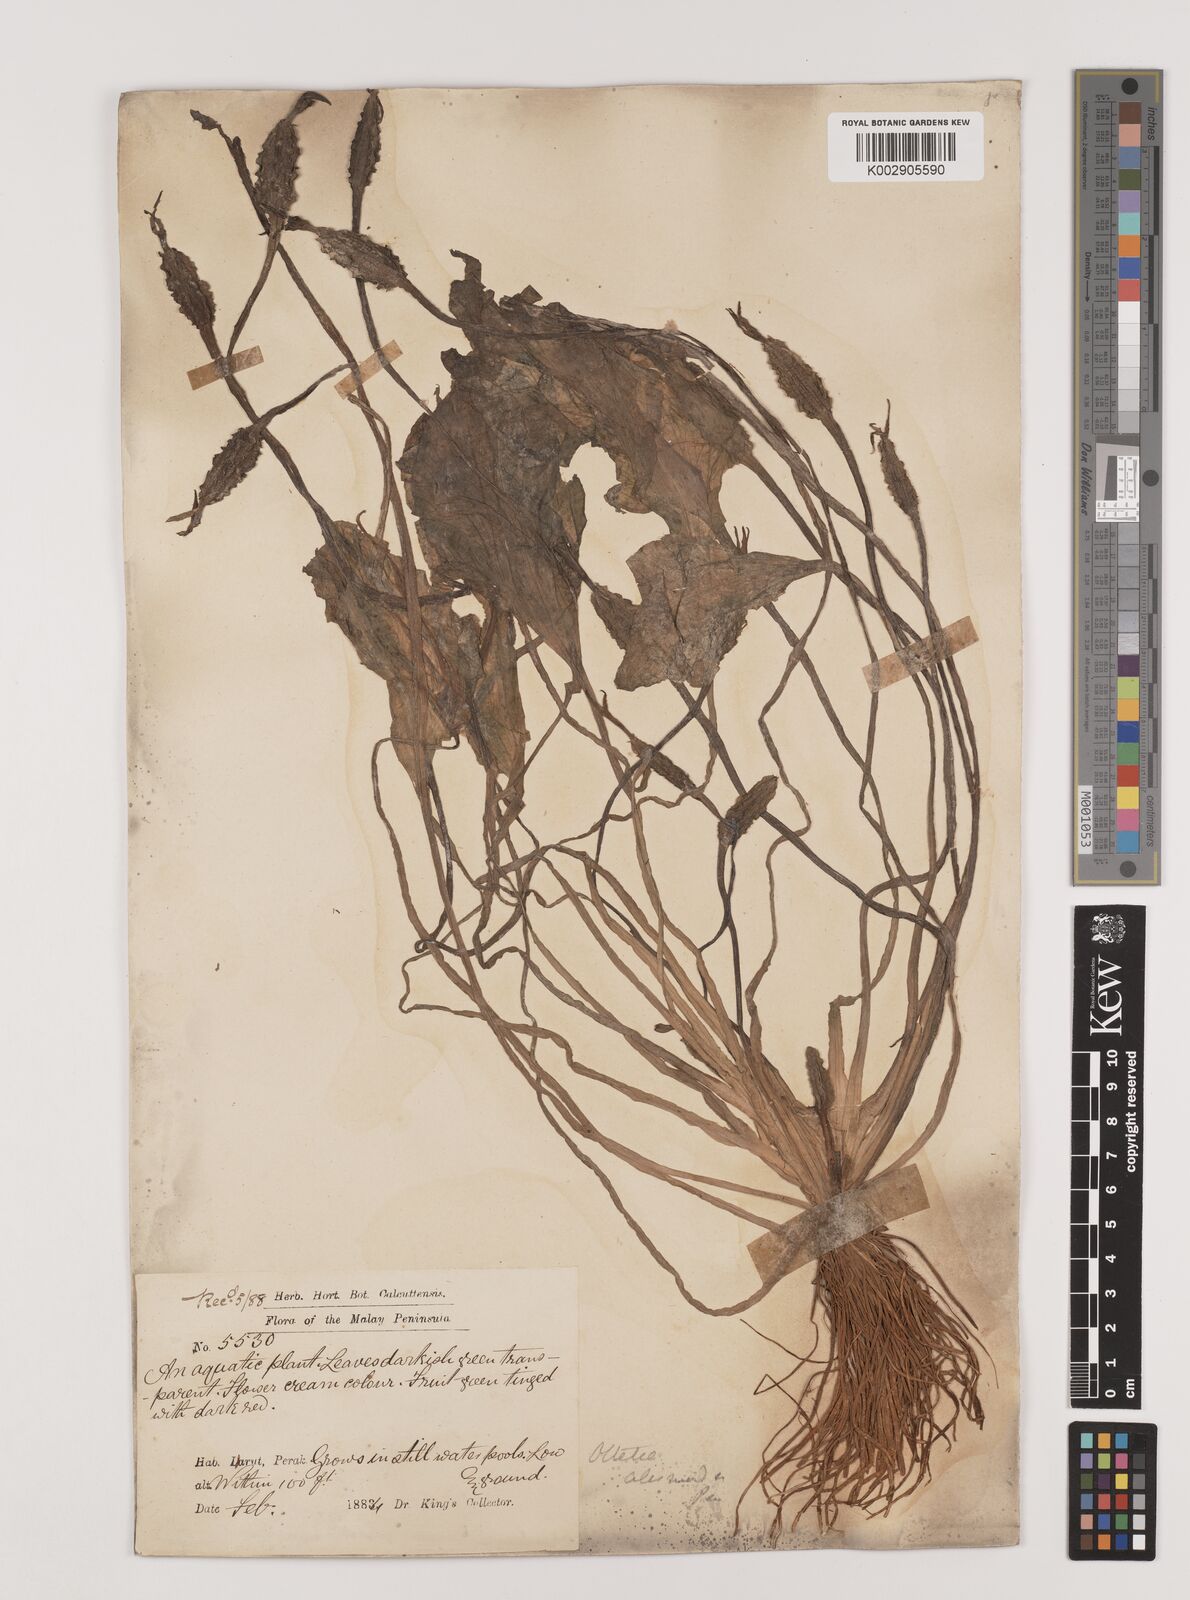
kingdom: Plantae
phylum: Tracheophyta
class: Liliopsida
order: Alismatales
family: Hydrocharitaceae
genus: Ottelia
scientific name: Ottelia alismoides
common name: Duck-lettuce
